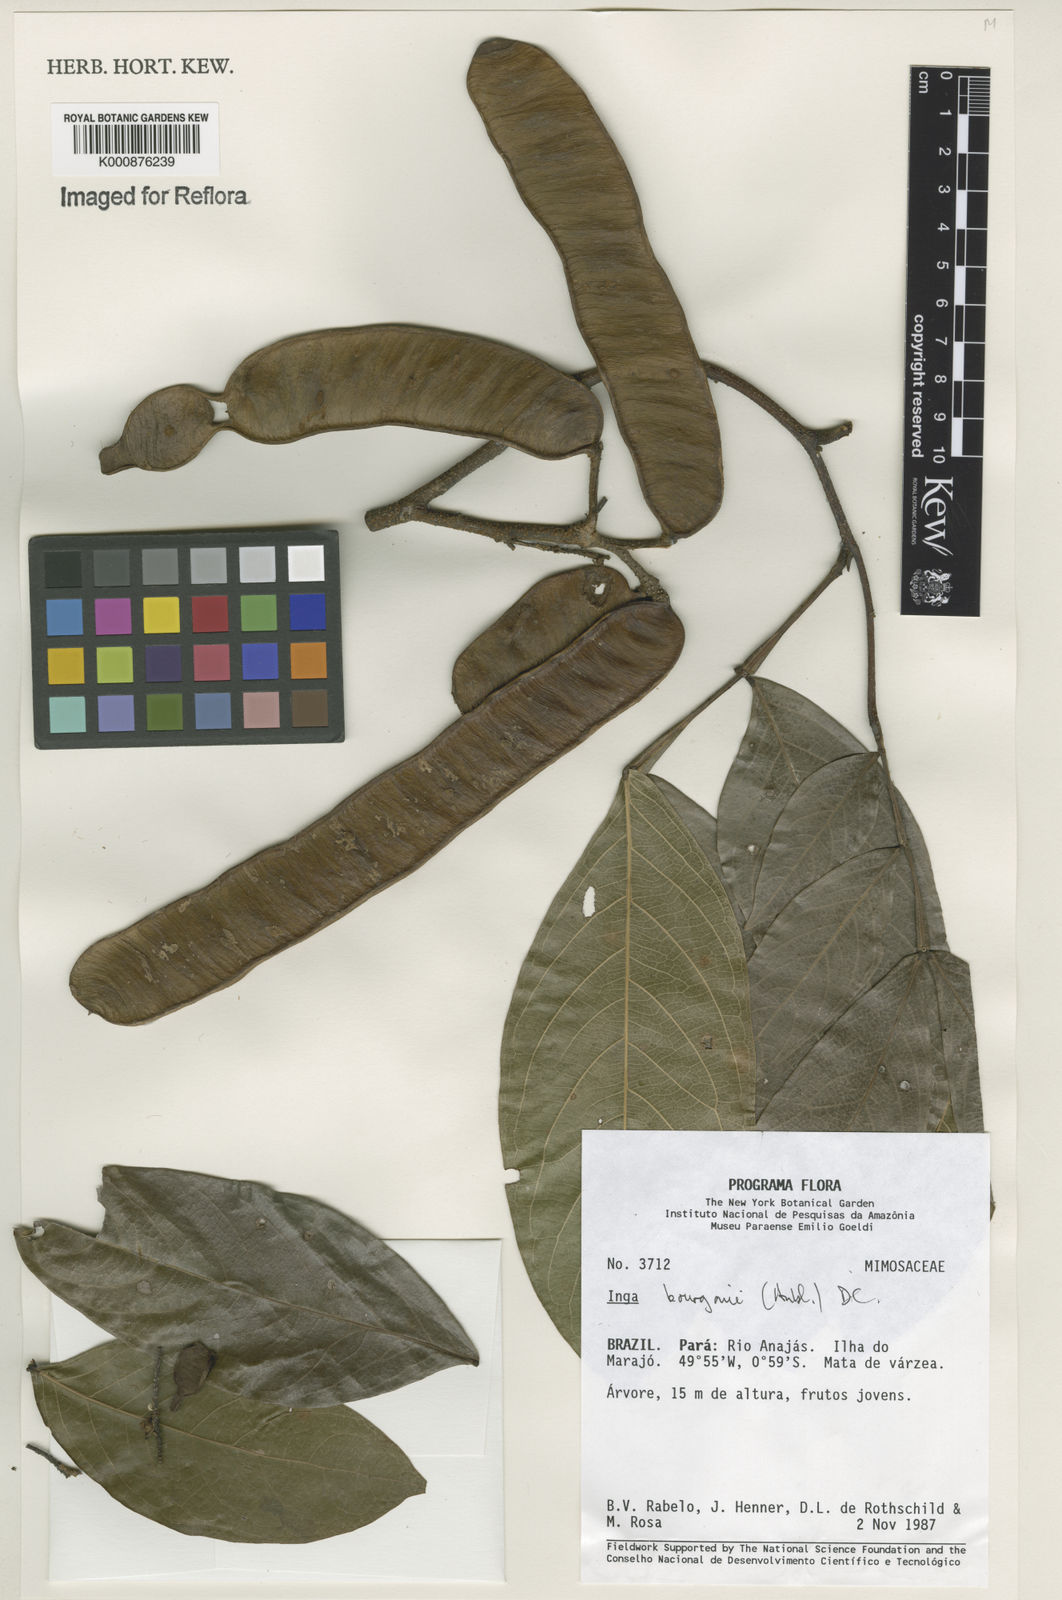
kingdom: Plantae
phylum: Tracheophyta
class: Magnoliopsida
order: Fabales
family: Fabaceae
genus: Inga
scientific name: Inga bourgoni
